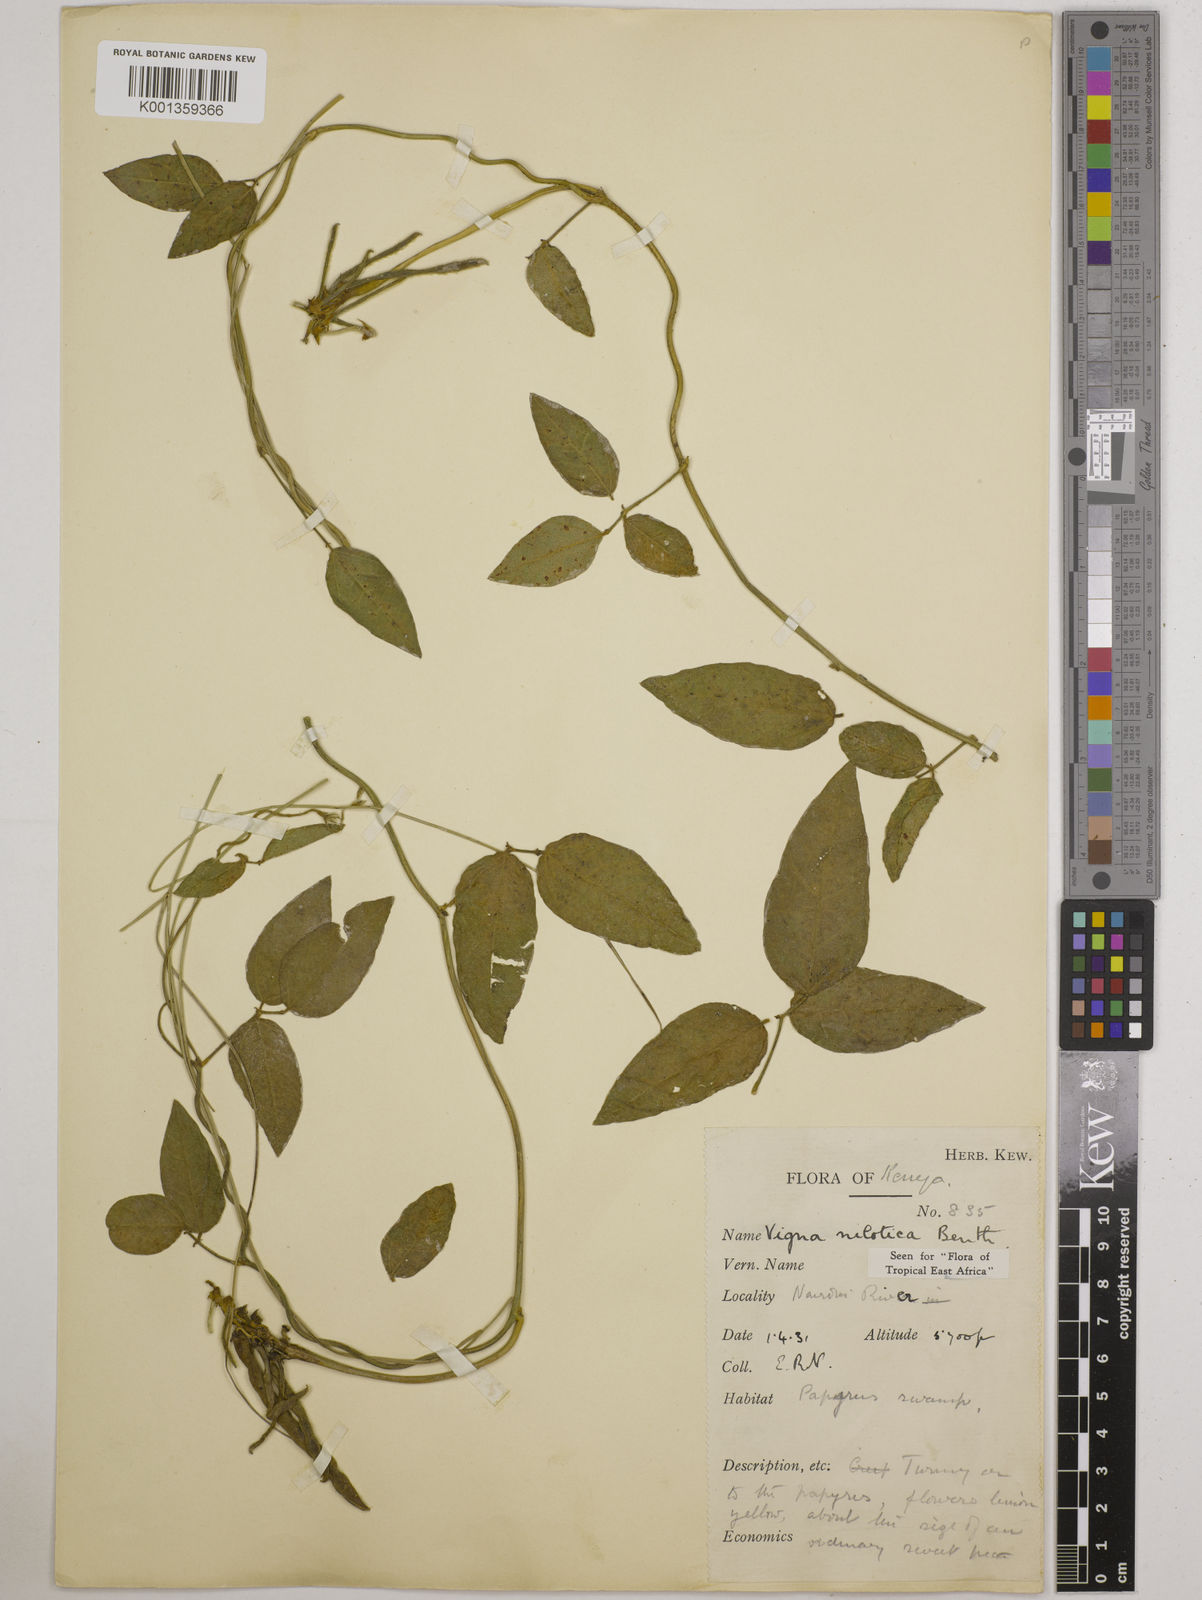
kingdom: Plantae
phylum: Tracheophyta
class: Magnoliopsida
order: Fabales
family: Fabaceae
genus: Vigna
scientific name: Vigna luteola
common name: Hairypod cowpea
